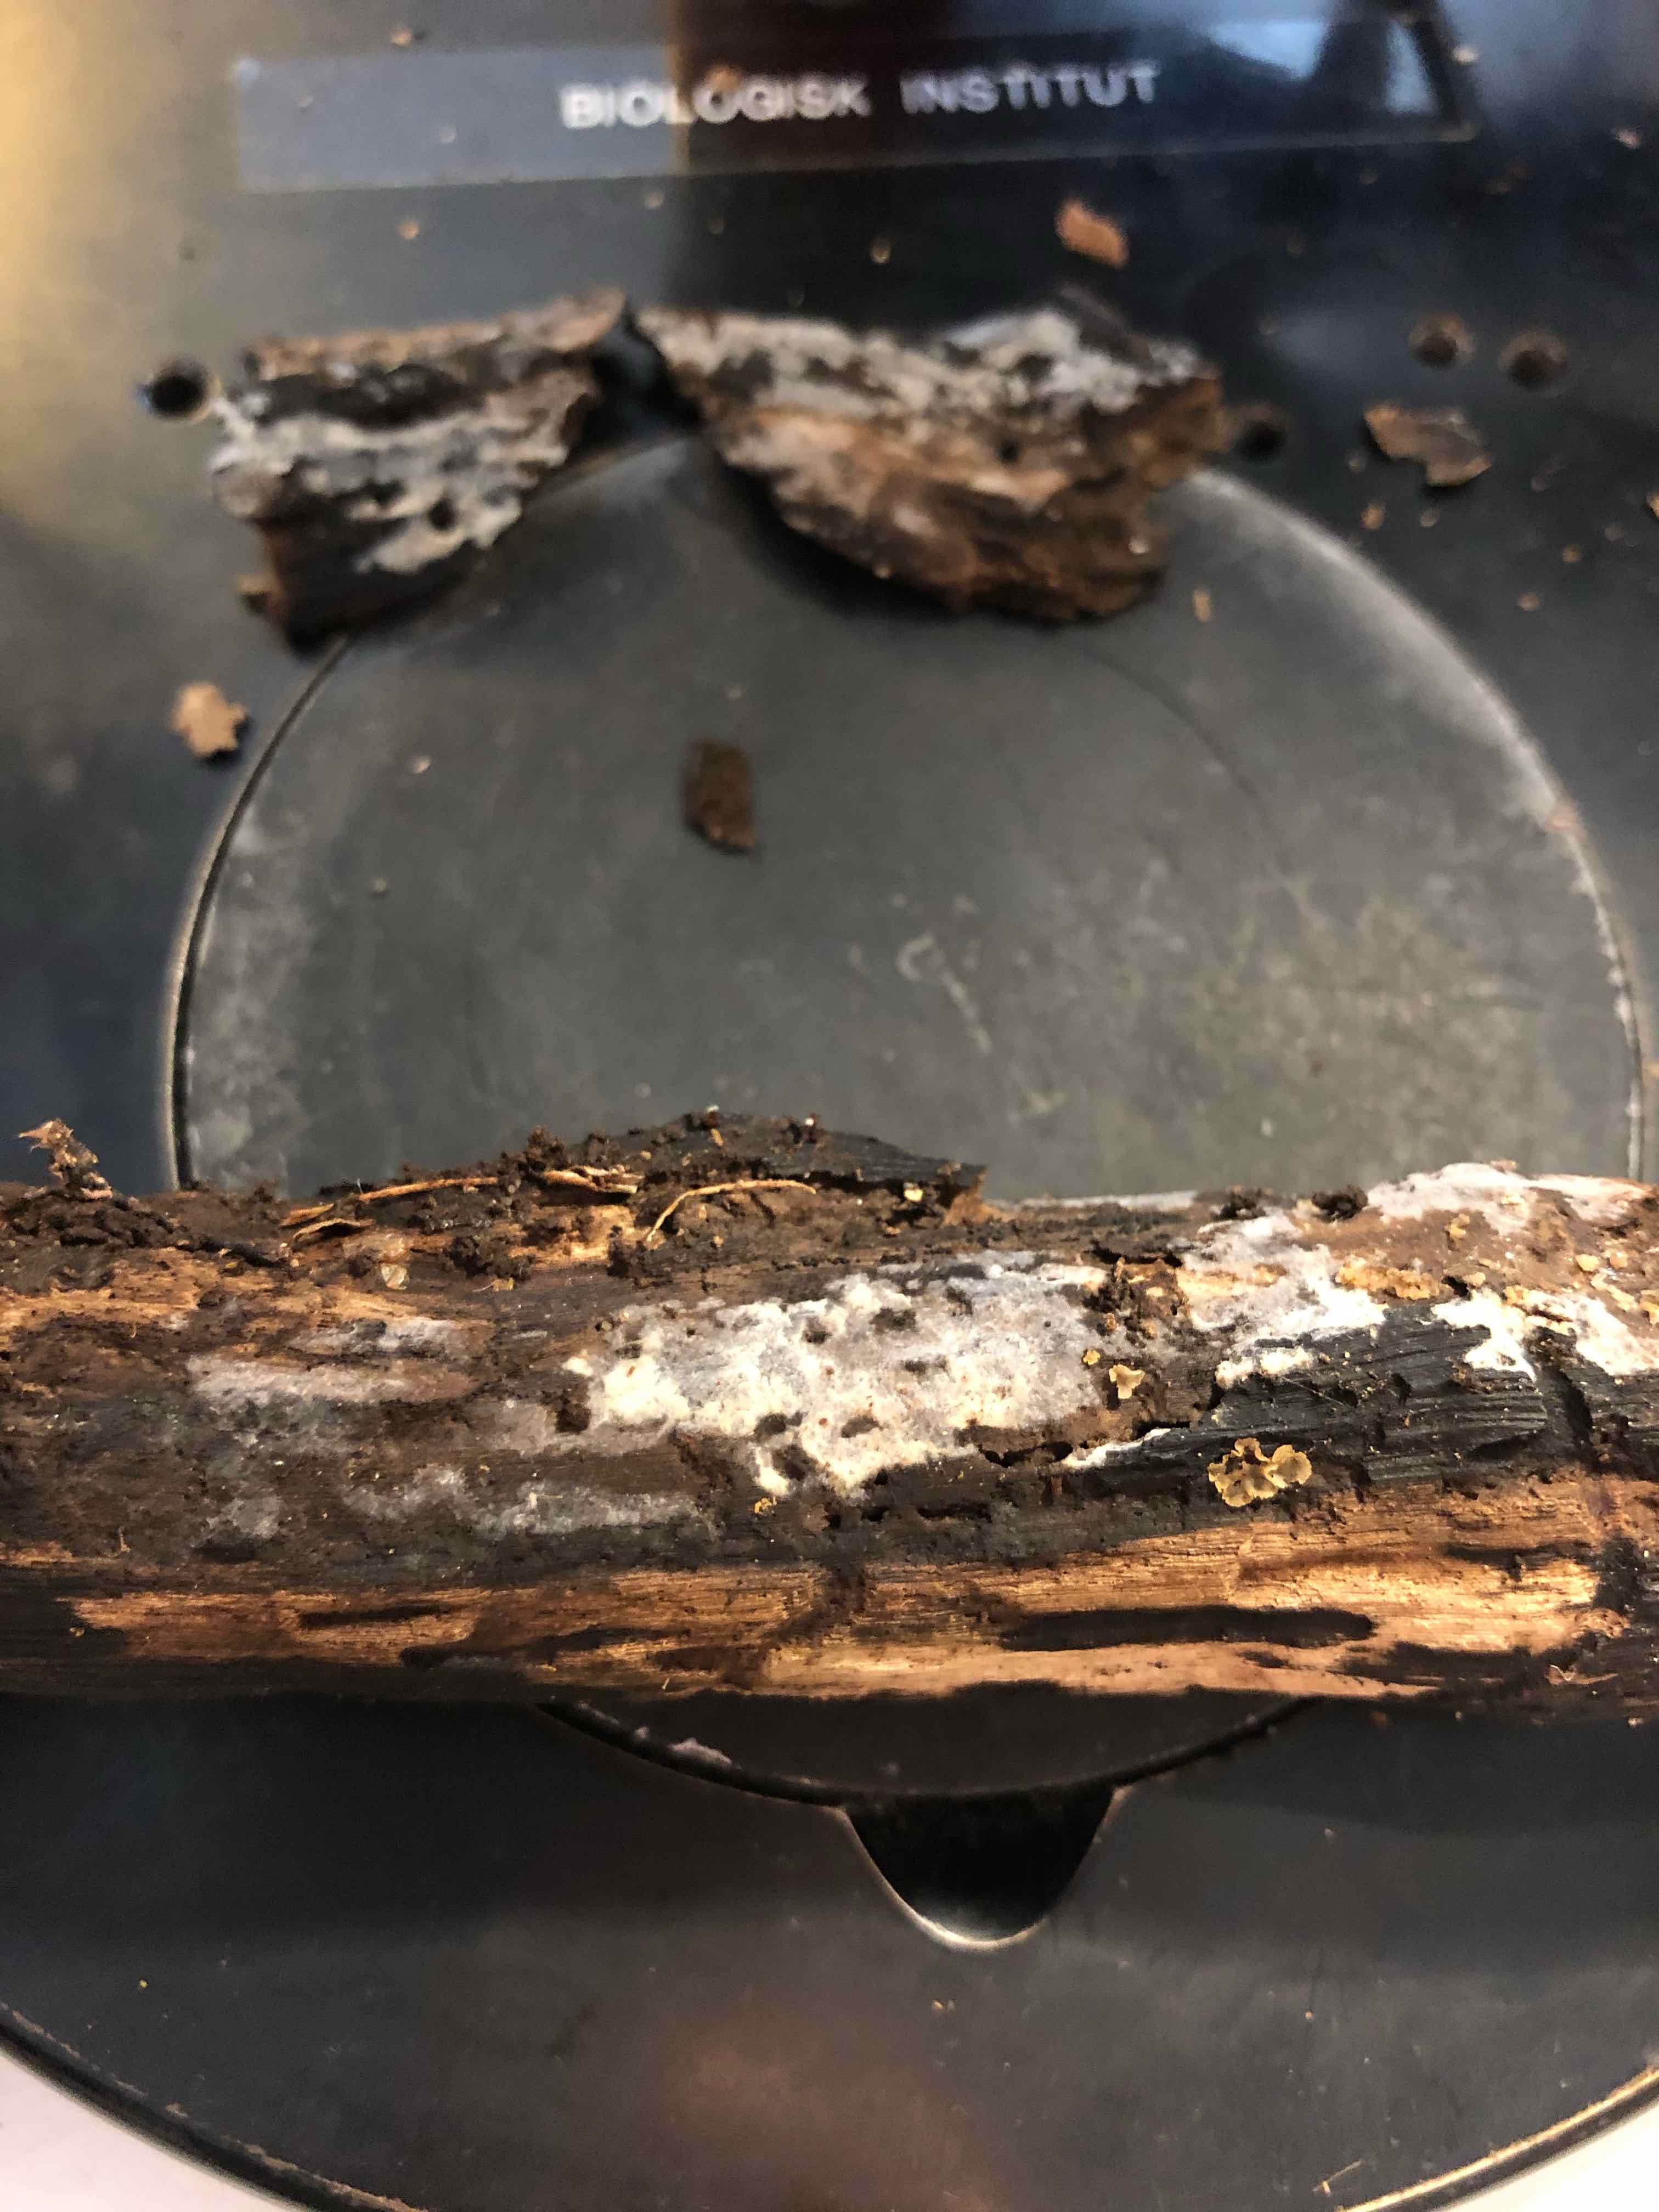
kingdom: Fungi
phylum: Basidiomycota
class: Agaricomycetes
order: Polyporales
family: Meruliaceae
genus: Scopuloides
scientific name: Scopuloides rimosa
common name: dughinde
